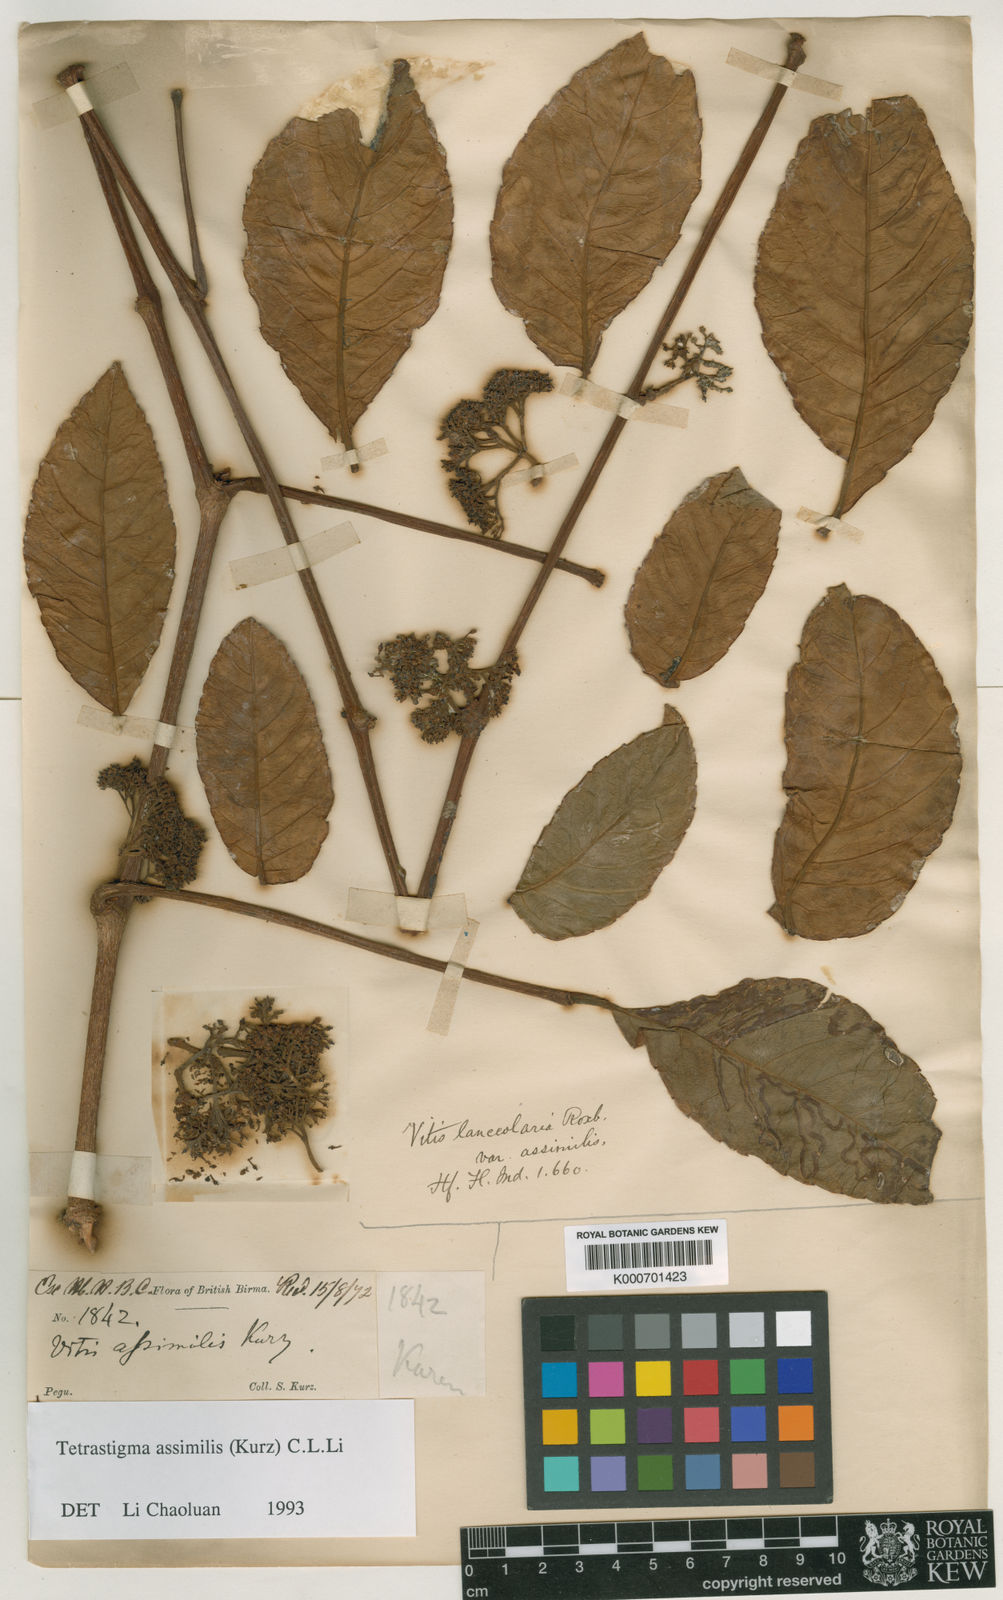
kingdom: Plantae
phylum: Tracheophyta
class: Magnoliopsida
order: Vitales
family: Vitaceae
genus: Tetrastigma
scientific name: Tetrastigma
